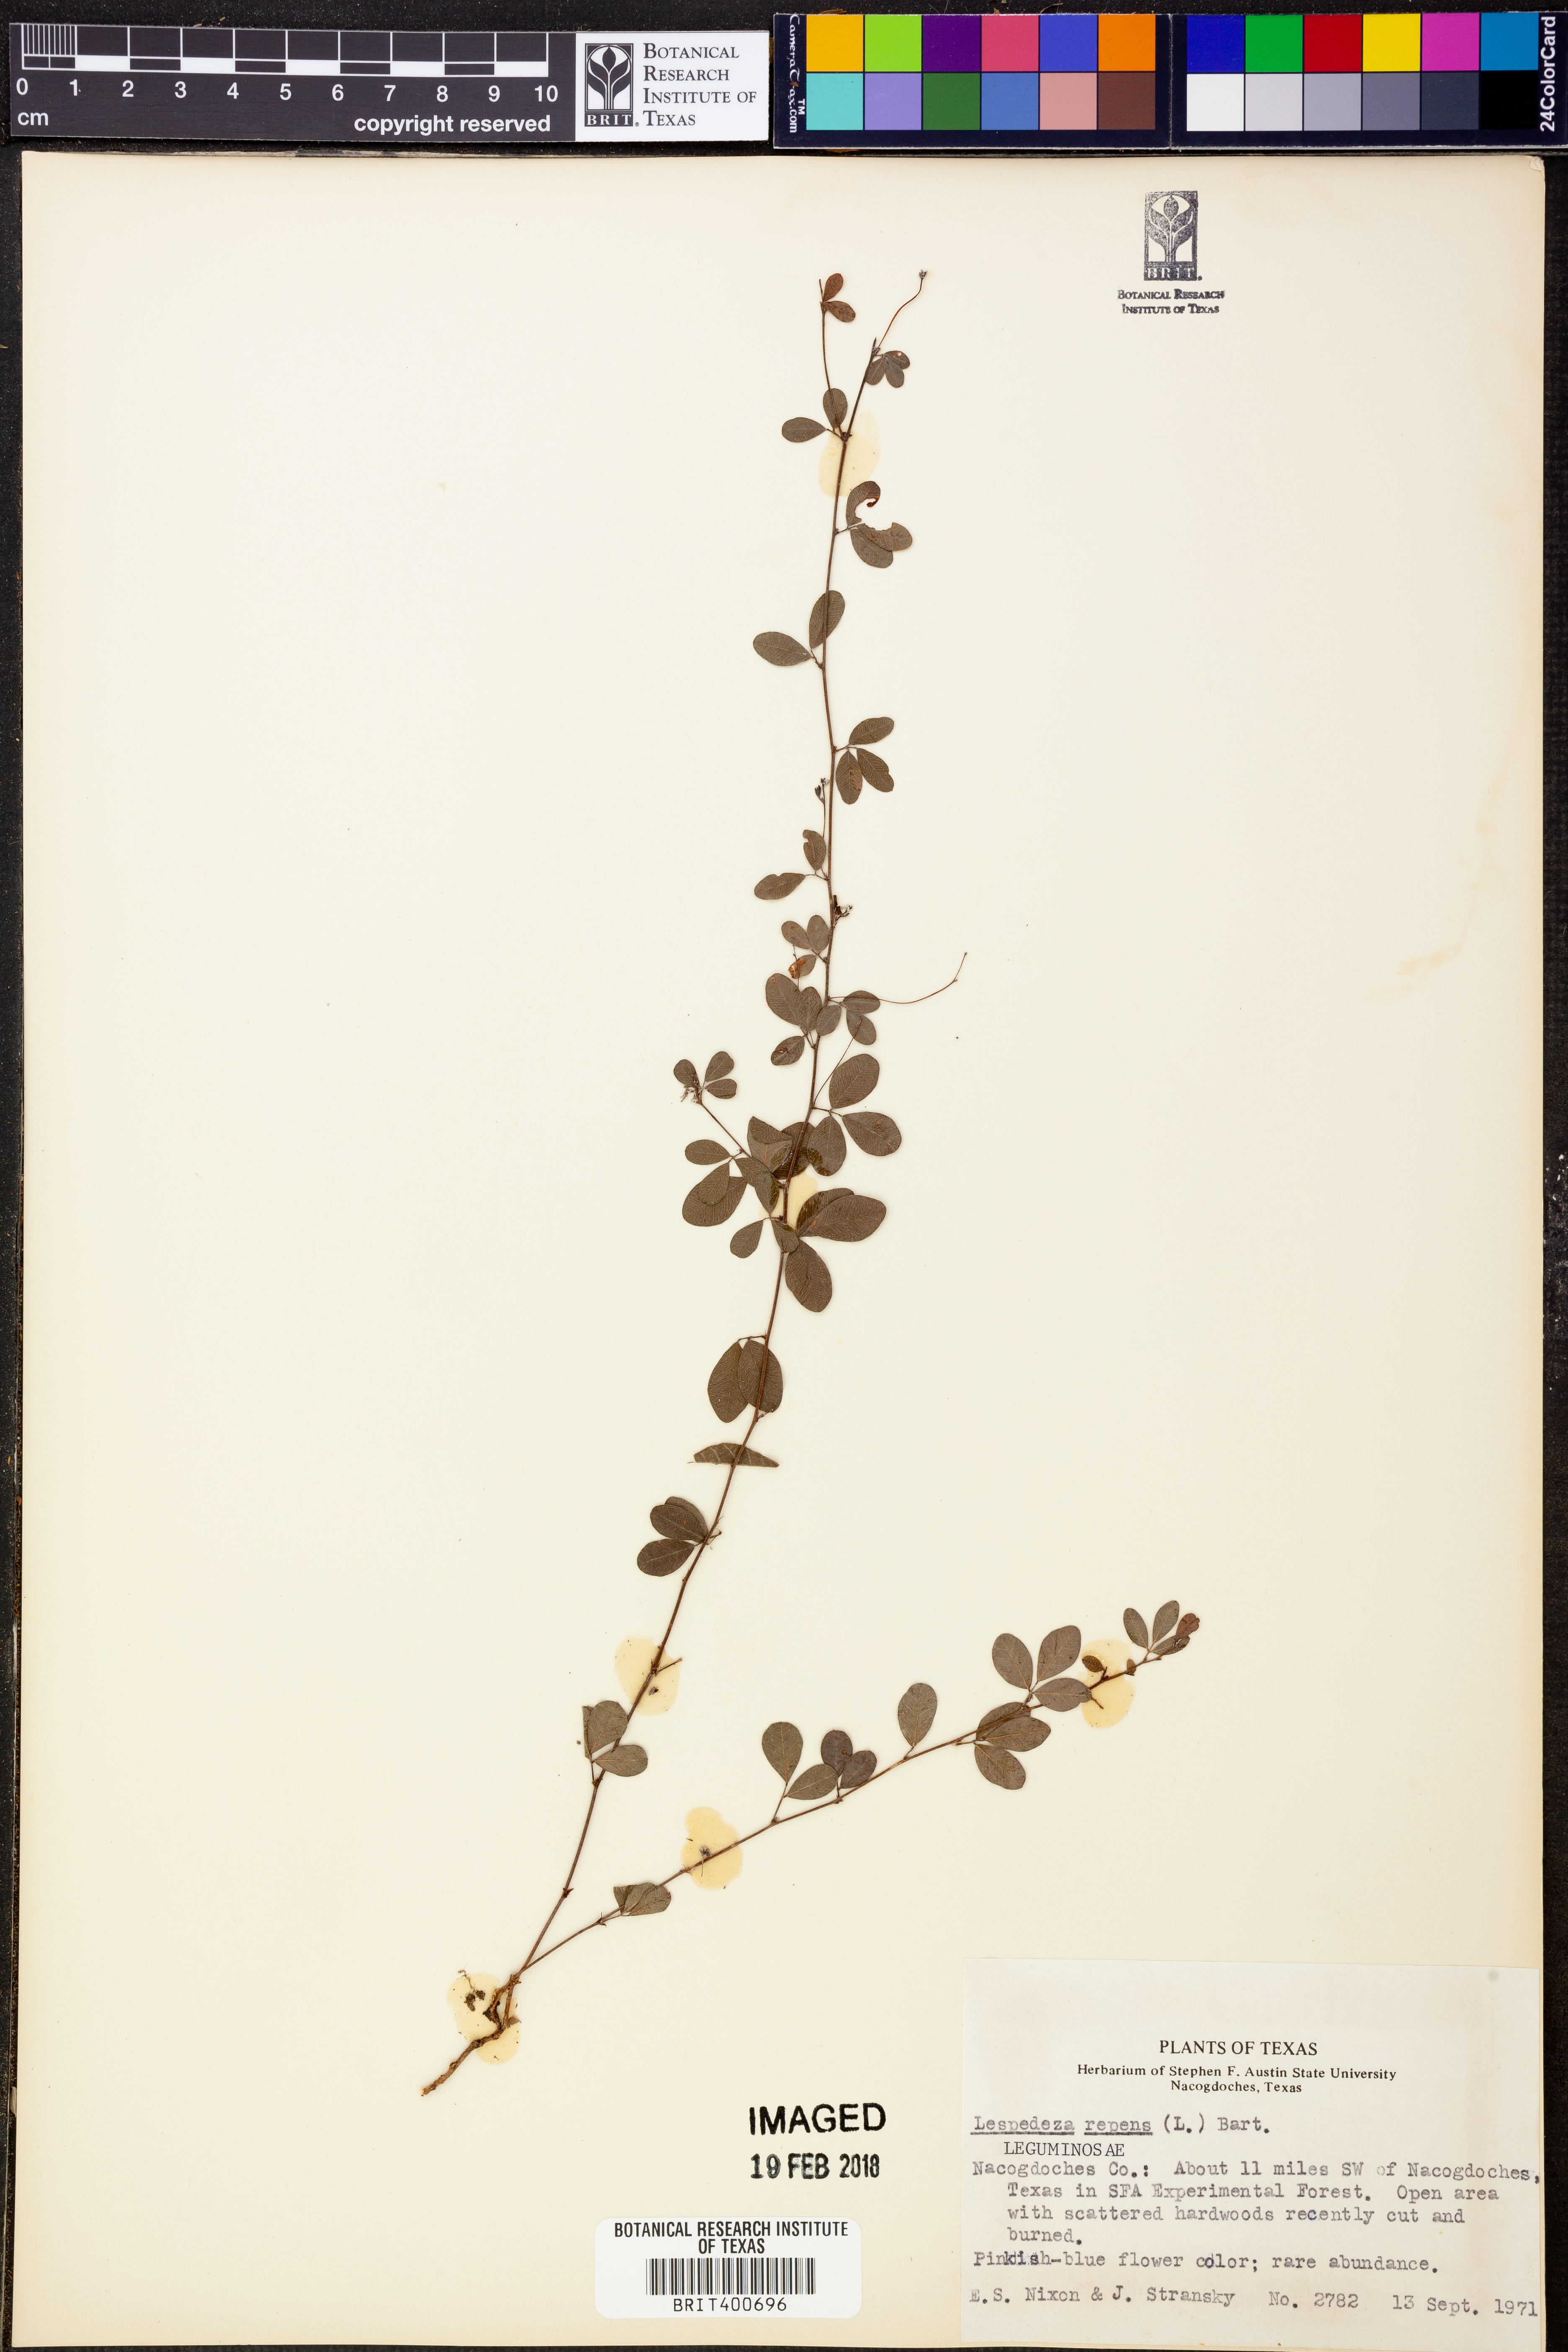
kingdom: Plantae
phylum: Tracheophyta
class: Magnoliopsida
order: Fabales
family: Fabaceae
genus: Lespedeza
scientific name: Lespedeza repens
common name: Creeping bush-clover
